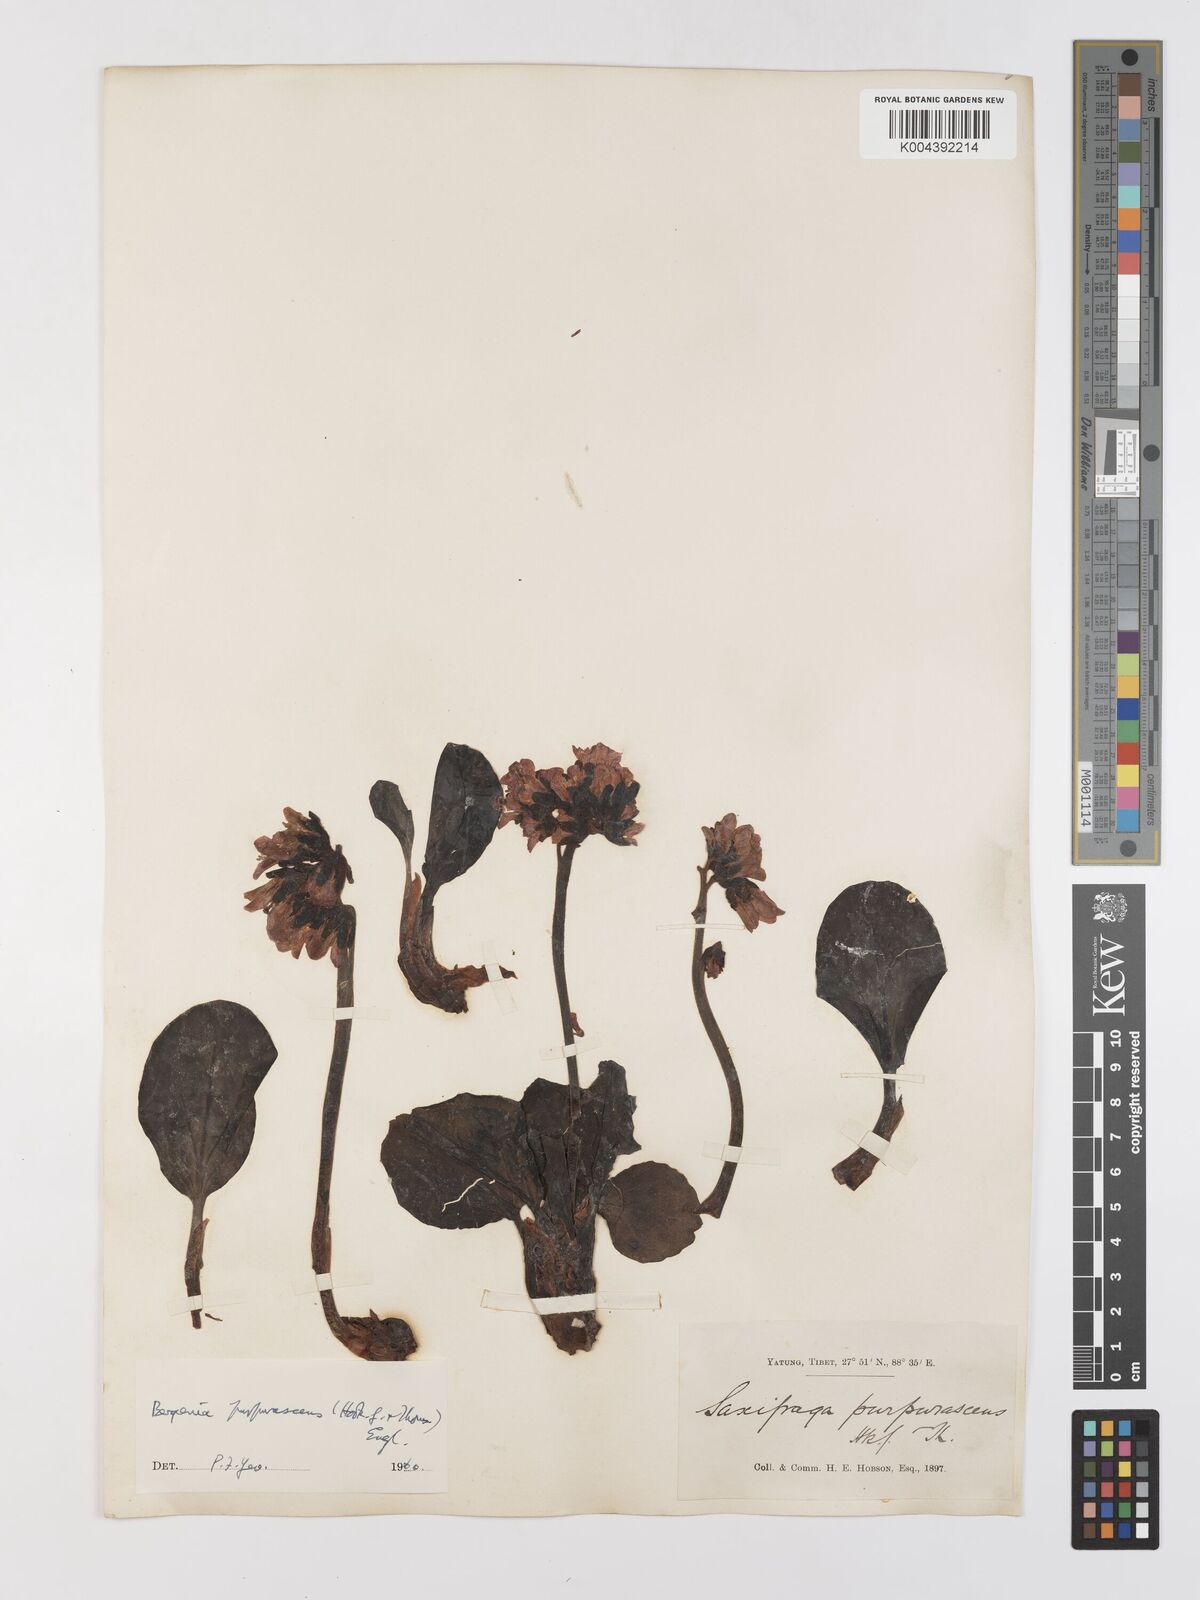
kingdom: Plantae
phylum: Tracheophyta
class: Magnoliopsida
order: Saxifragales
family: Saxifragaceae
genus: Bergenia
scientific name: Bergenia purpurascens
